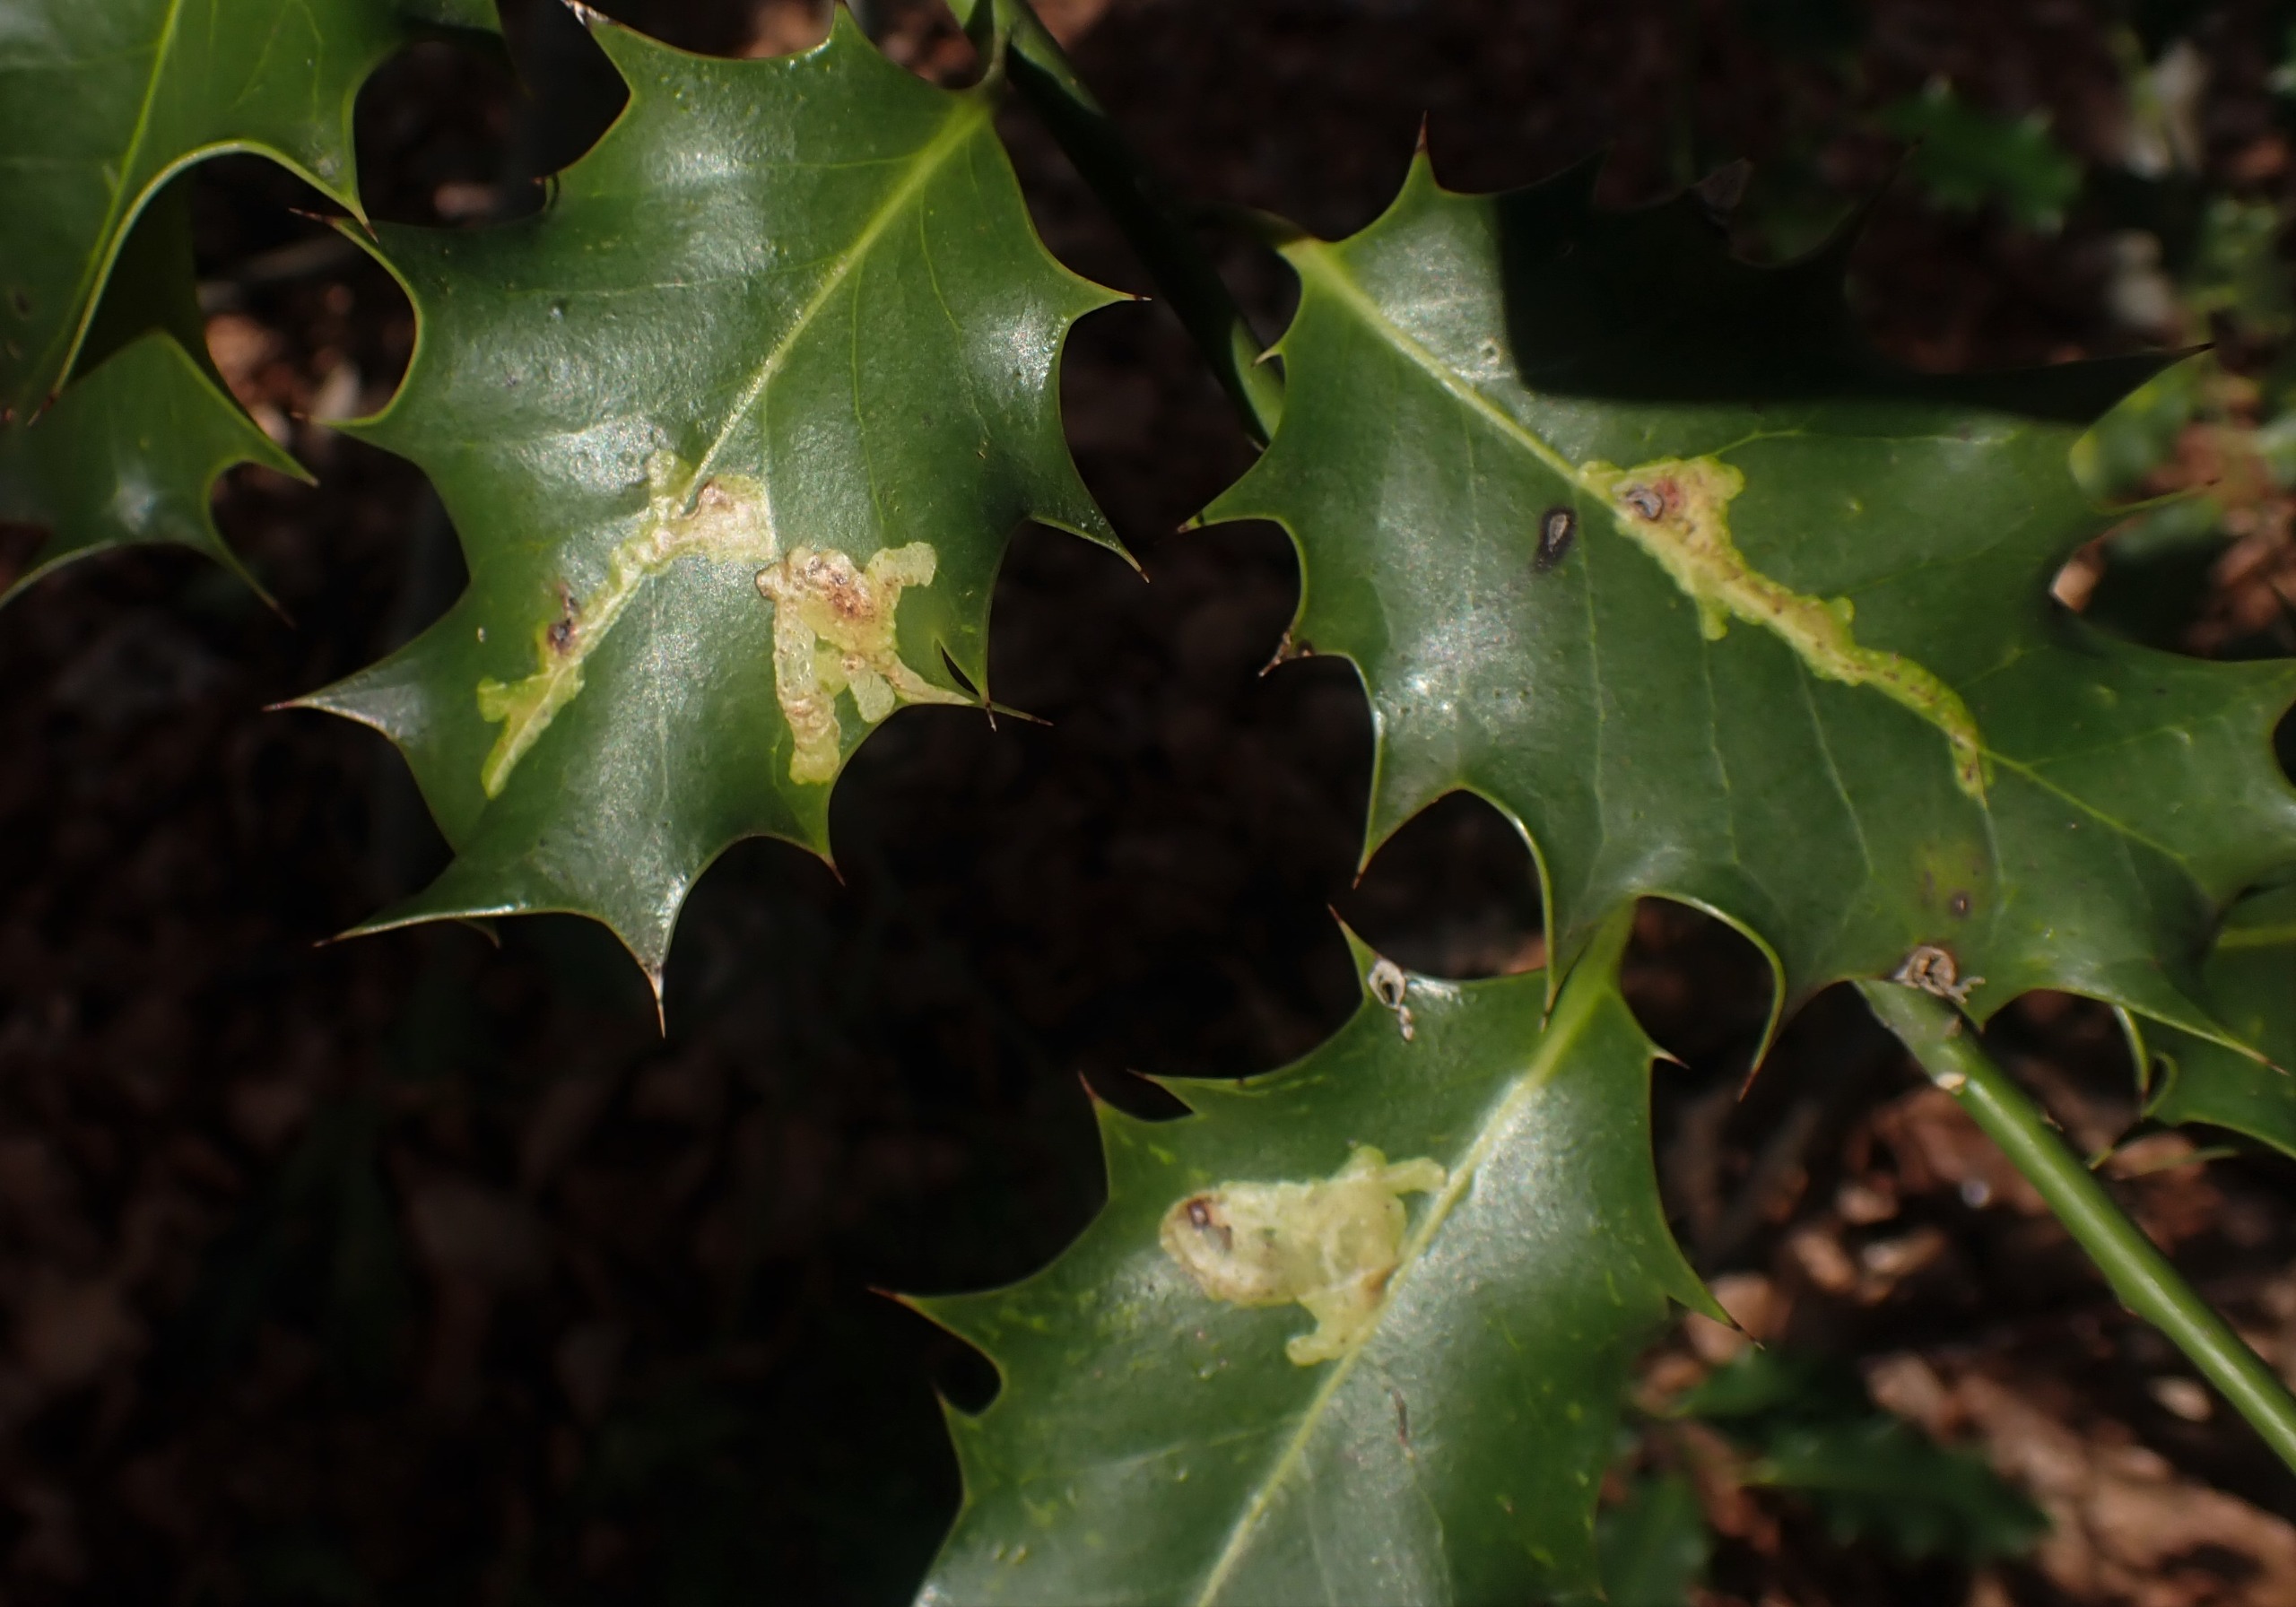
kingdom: Animalia
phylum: Arthropoda
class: Insecta
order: Diptera
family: Agromyzidae
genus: Phytomyza
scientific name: Phytomyza ilicis
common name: Kristtornminérflue
